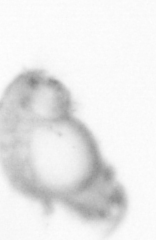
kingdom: Animalia
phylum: Annelida
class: Polychaeta
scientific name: Polychaeta
